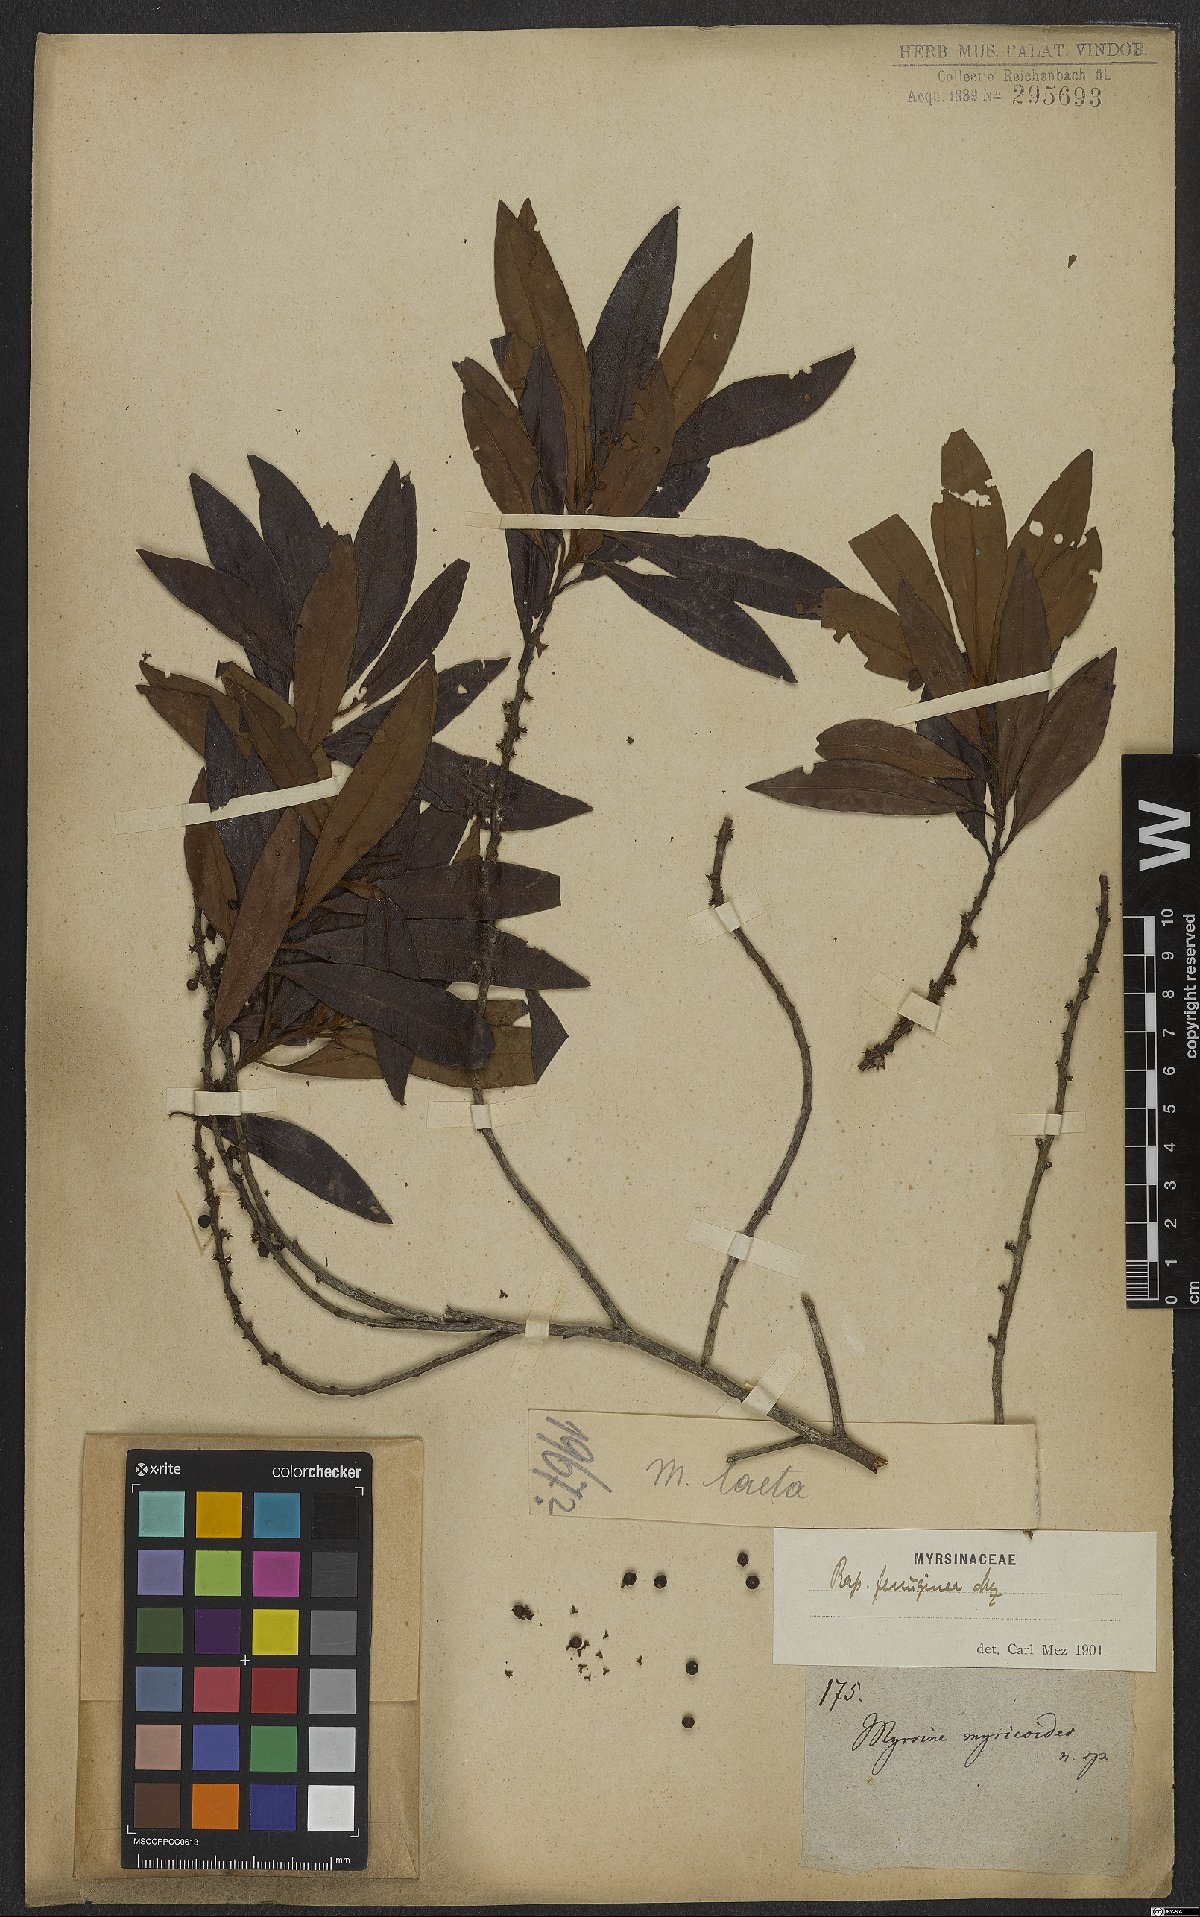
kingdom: Plantae
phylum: Tracheophyta
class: Magnoliopsida
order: Ericales
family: Primulaceae
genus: Myrsine
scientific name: Myrsine coriacea
